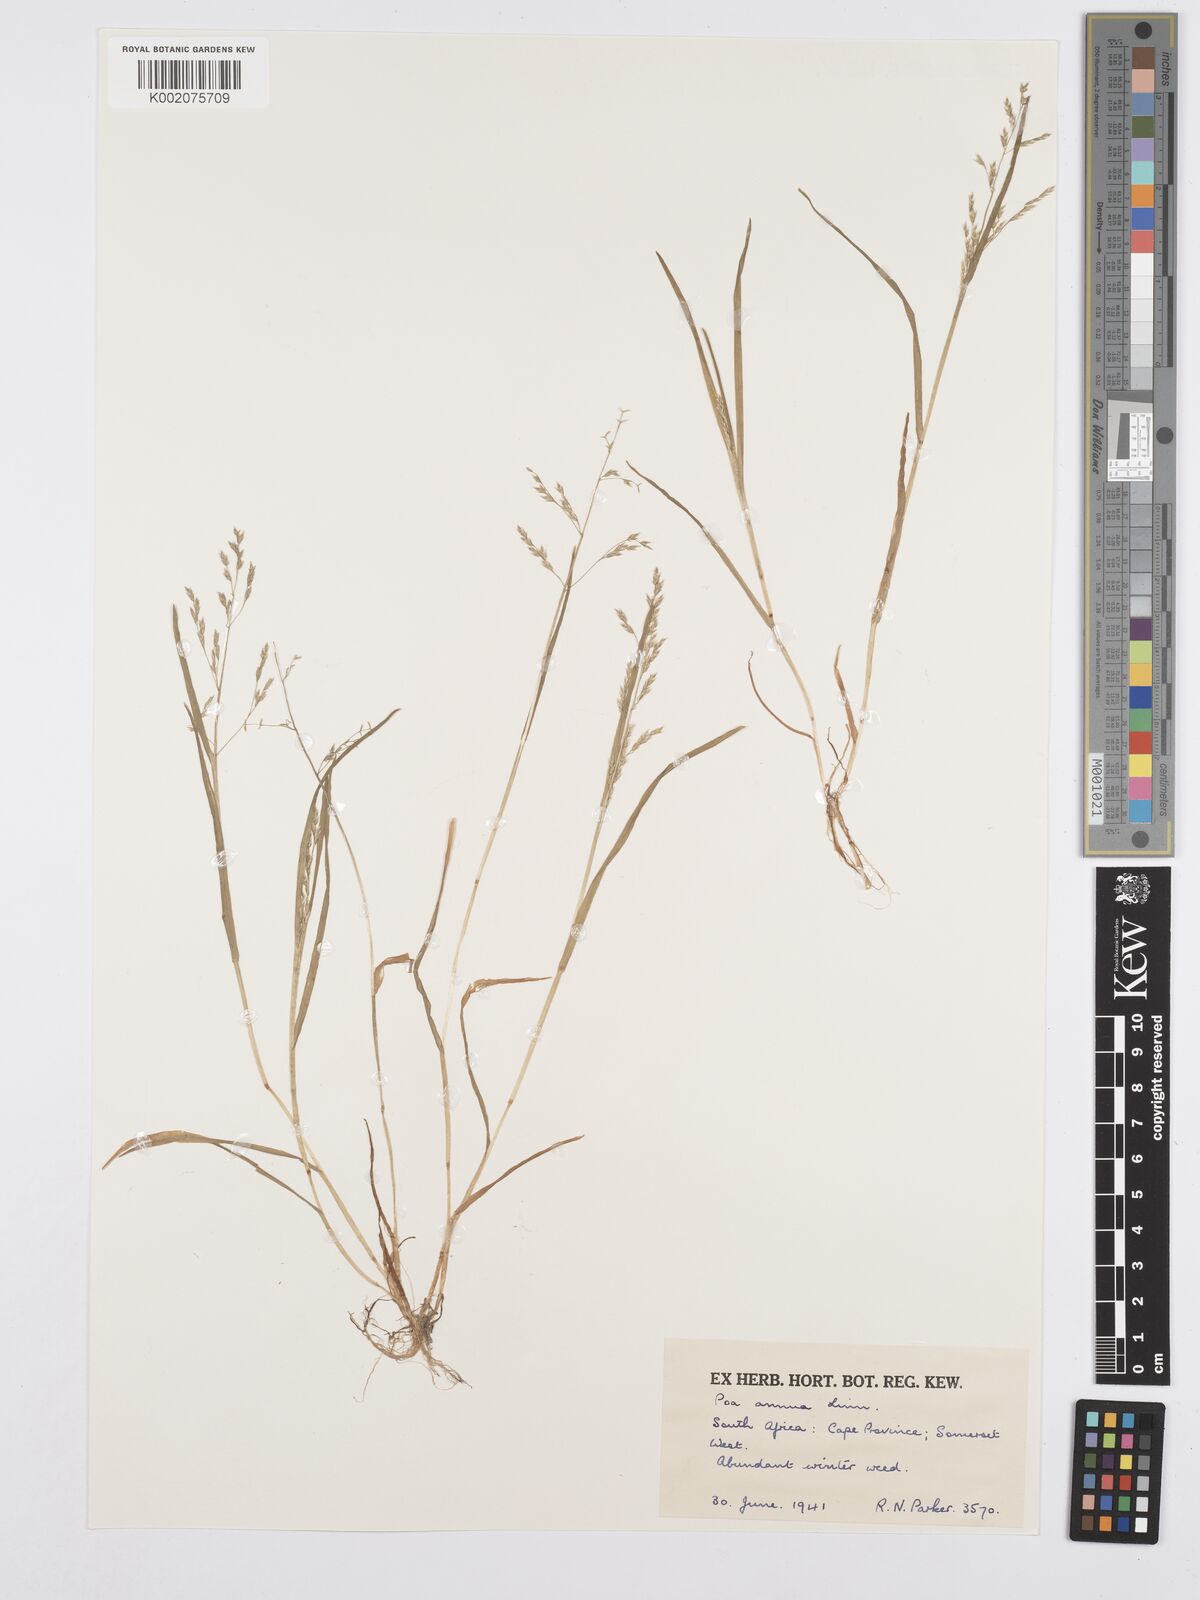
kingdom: Plantae
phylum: Tracheophyta
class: Liliopsida
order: Poales
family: Poaceae
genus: Poa
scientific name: Poa annua
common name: Annual bluegrass
